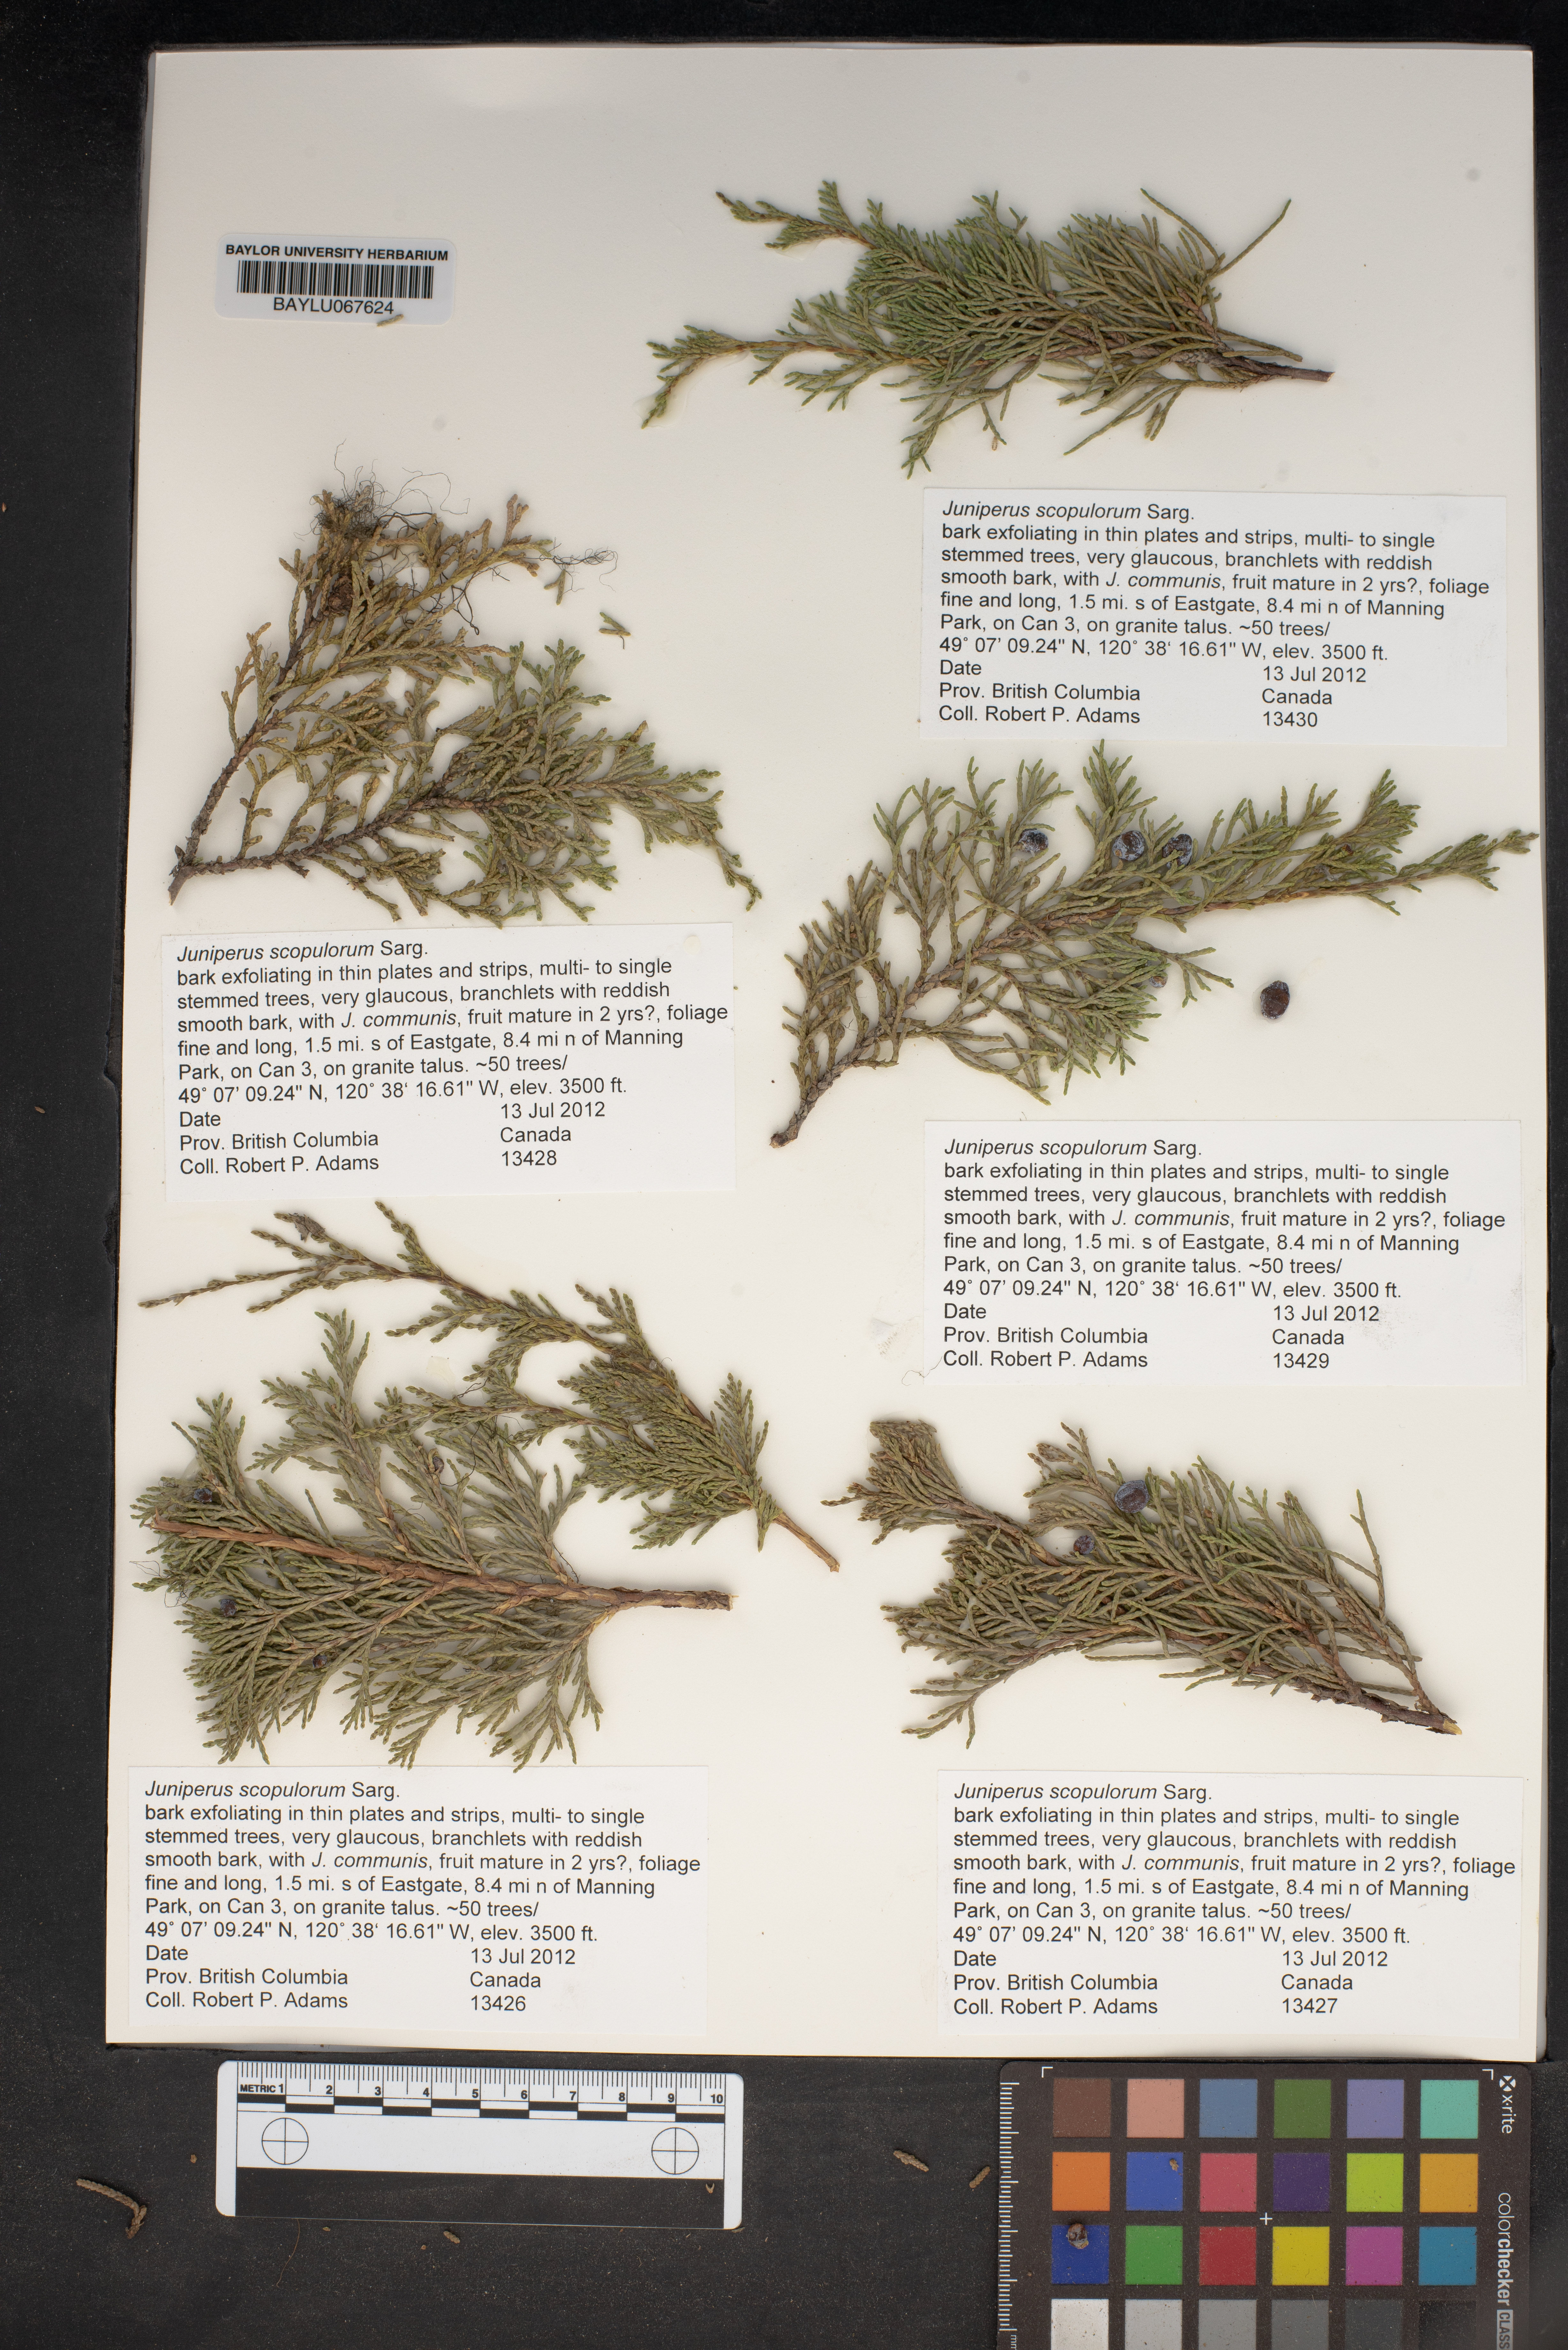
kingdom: Plantae
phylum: Tracheophyta
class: Pinopsida
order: Pinales
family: Cupressaceae
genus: Juniperus
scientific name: Juniperus scopulorum
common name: Rocky mountain juniper
